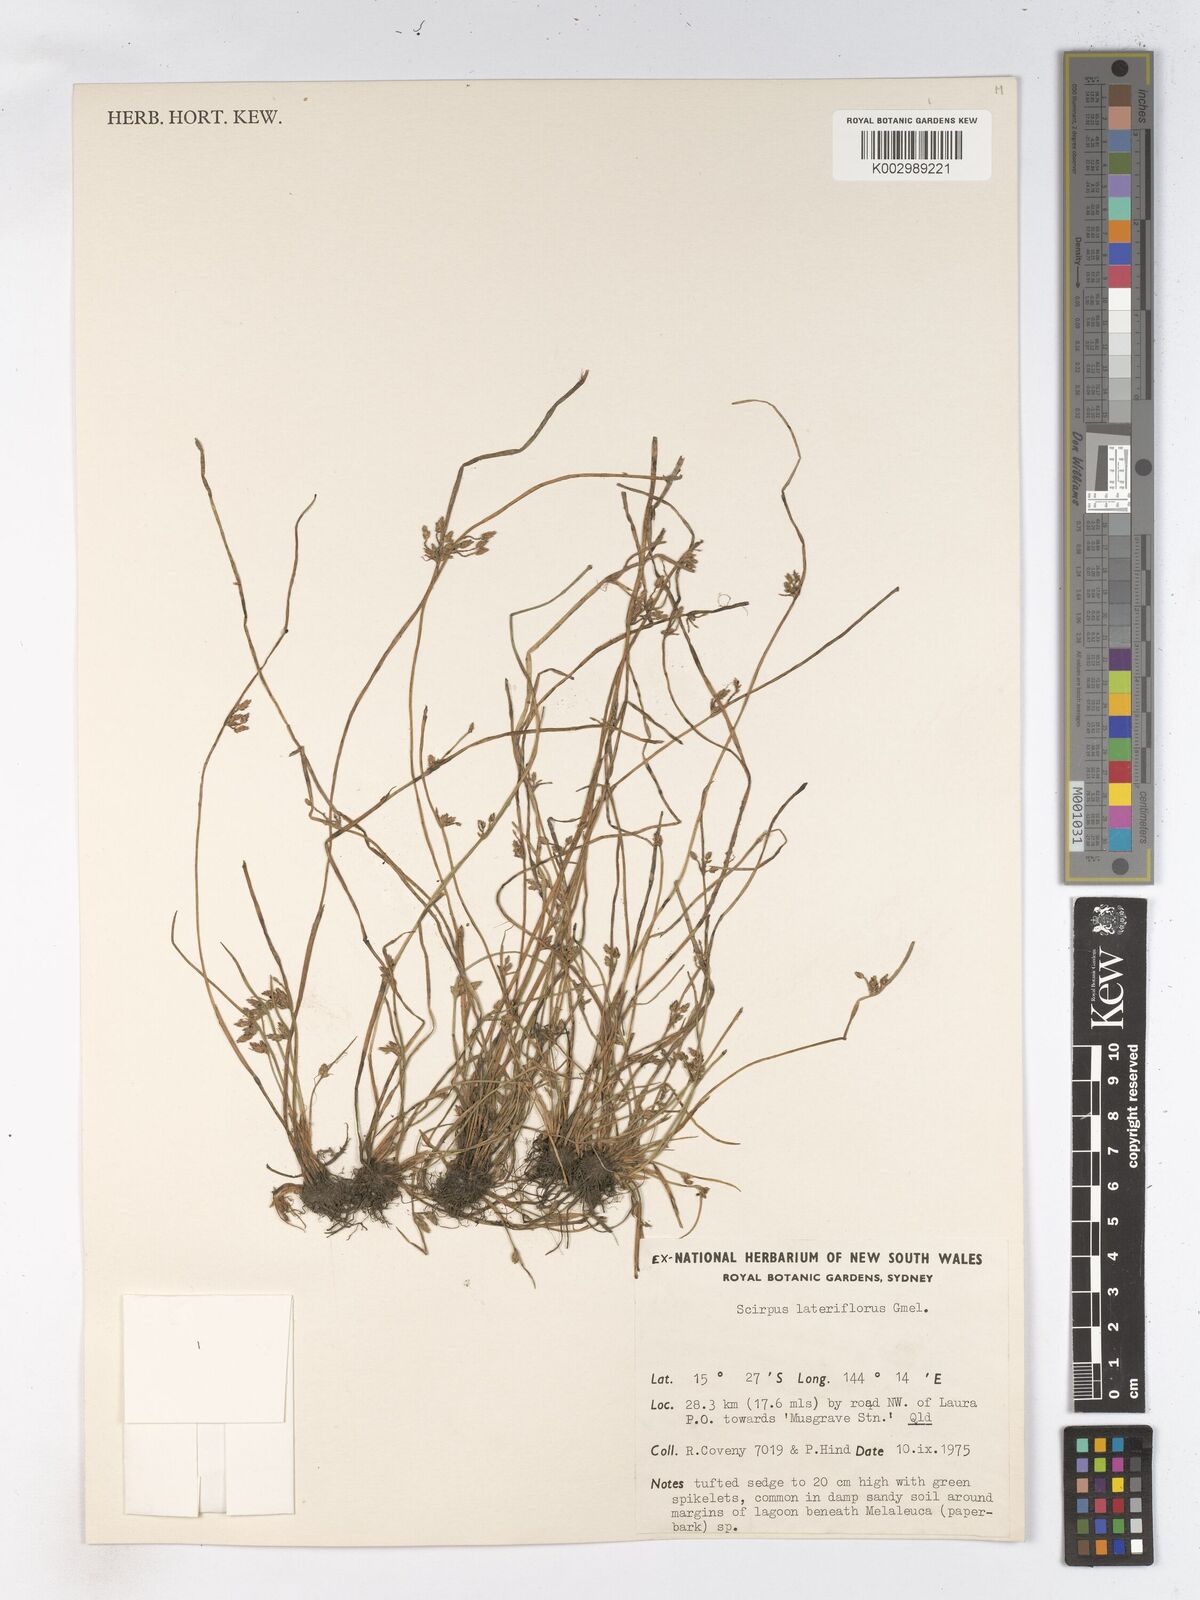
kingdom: Plantae
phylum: Tracheophyta
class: Liliopsida
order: Poales
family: Cyperaceae
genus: Schoenoplectiella
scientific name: Schoenoplectiella supina
